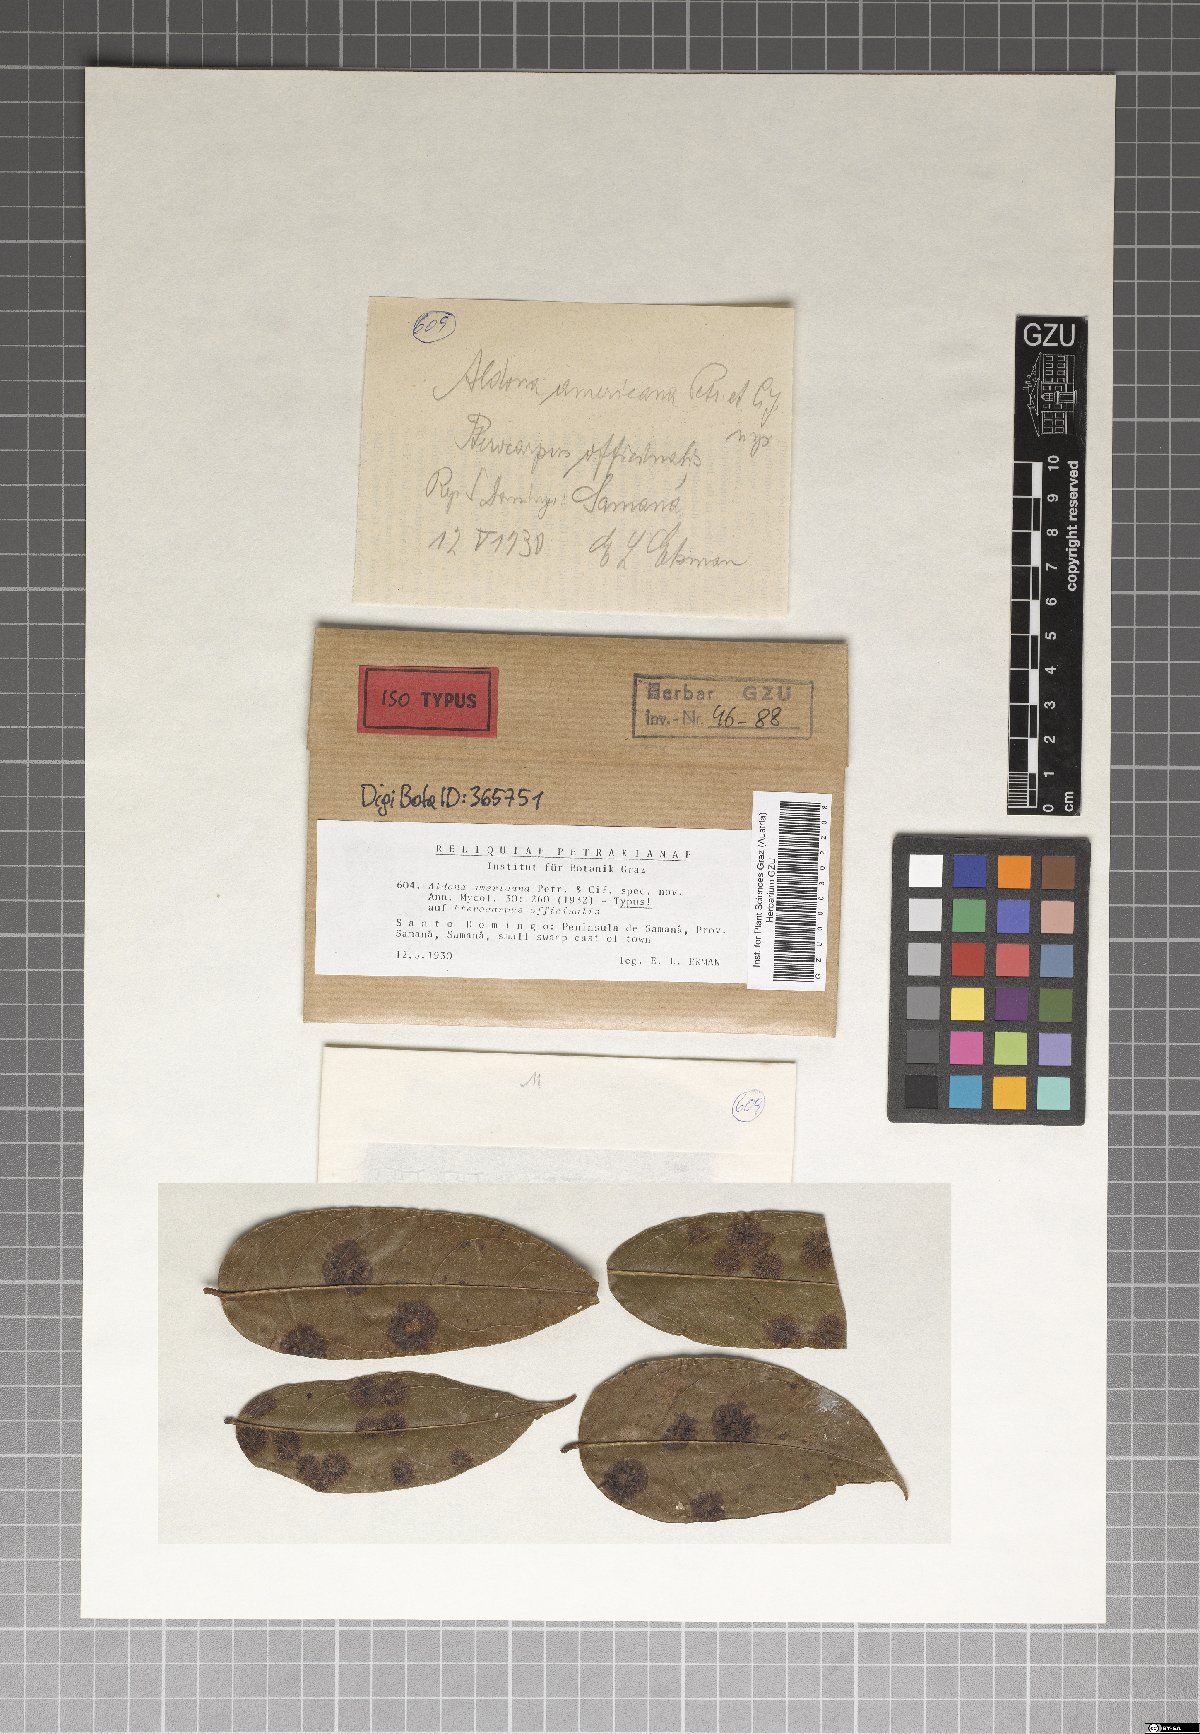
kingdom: Fungi
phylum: Ascomycota
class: Dothideomycetes
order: Asterinales
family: Parmulariaceae
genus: Aldona
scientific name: Aldona americana
